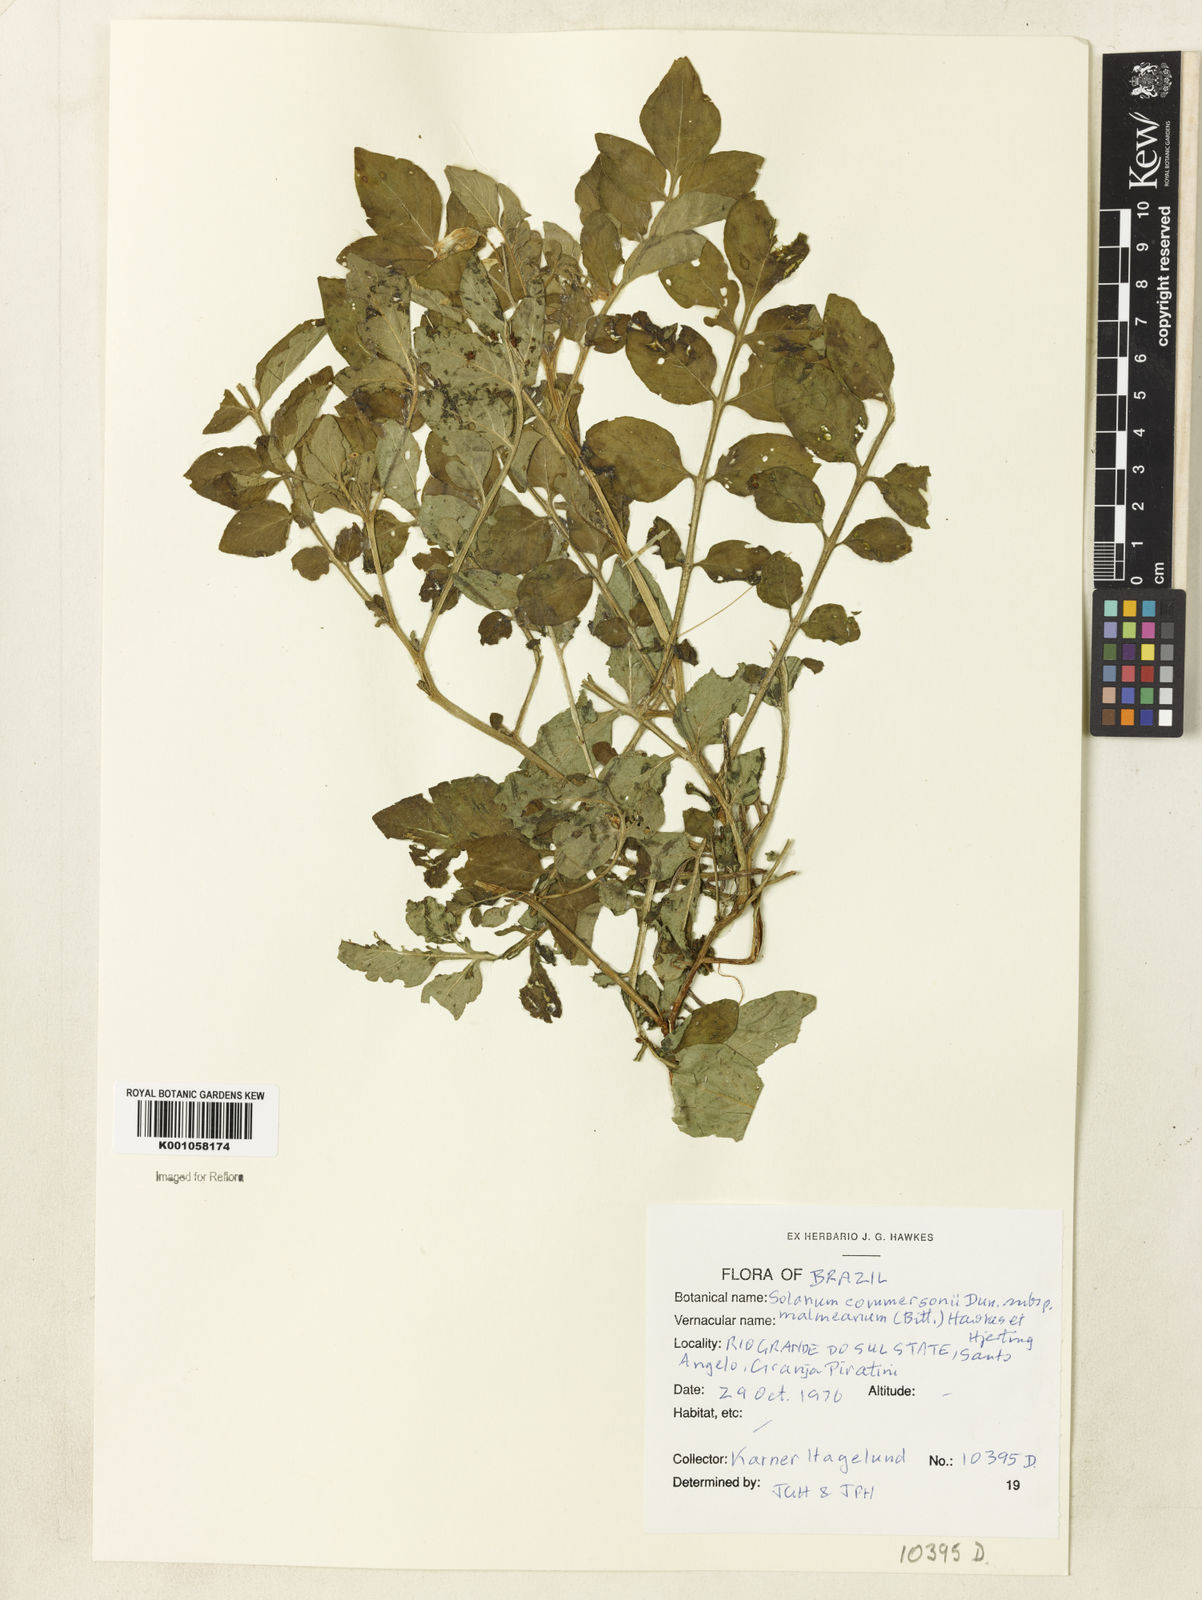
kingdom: Plantae
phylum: Tracheophyta
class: Magnoliopsida
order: Solanales
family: Solanaceae
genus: Solanum
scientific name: Solanum malmeanum
